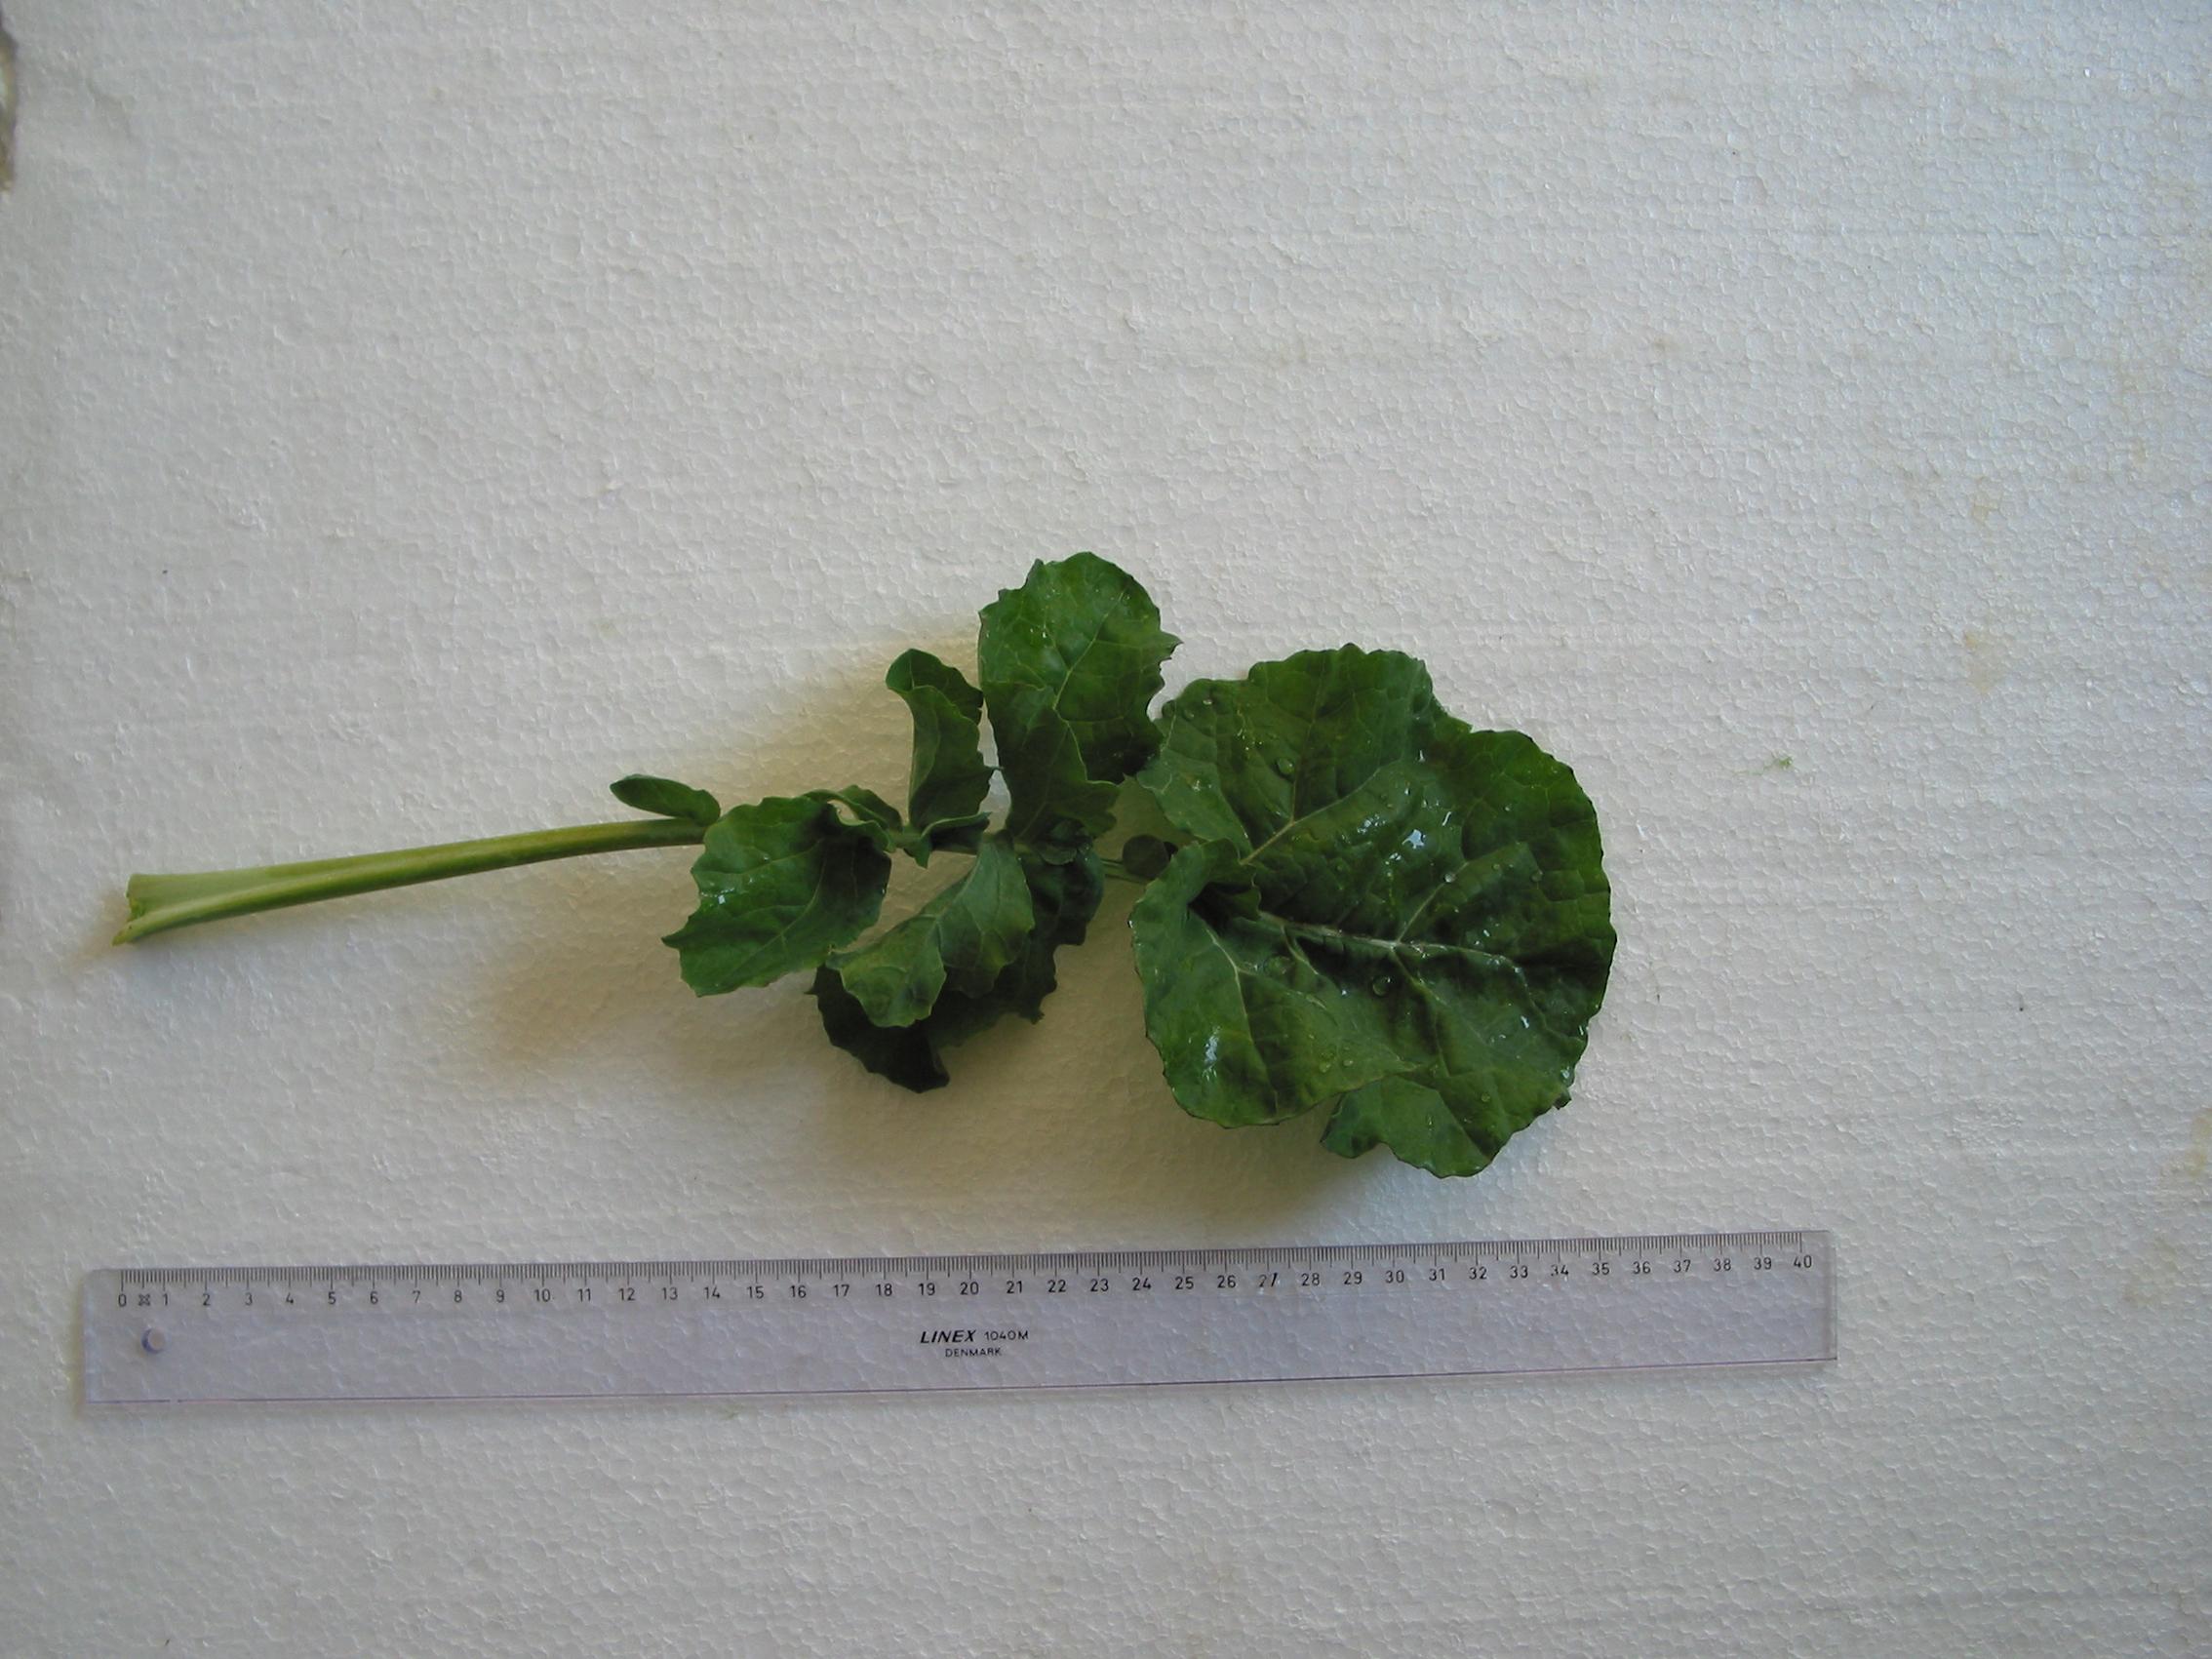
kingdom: Plantae
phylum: Tracheophyta
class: Magnoliopsida
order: Brassicales
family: Brassicaceae
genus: Brassica
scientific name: Brassica napus
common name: Rape
